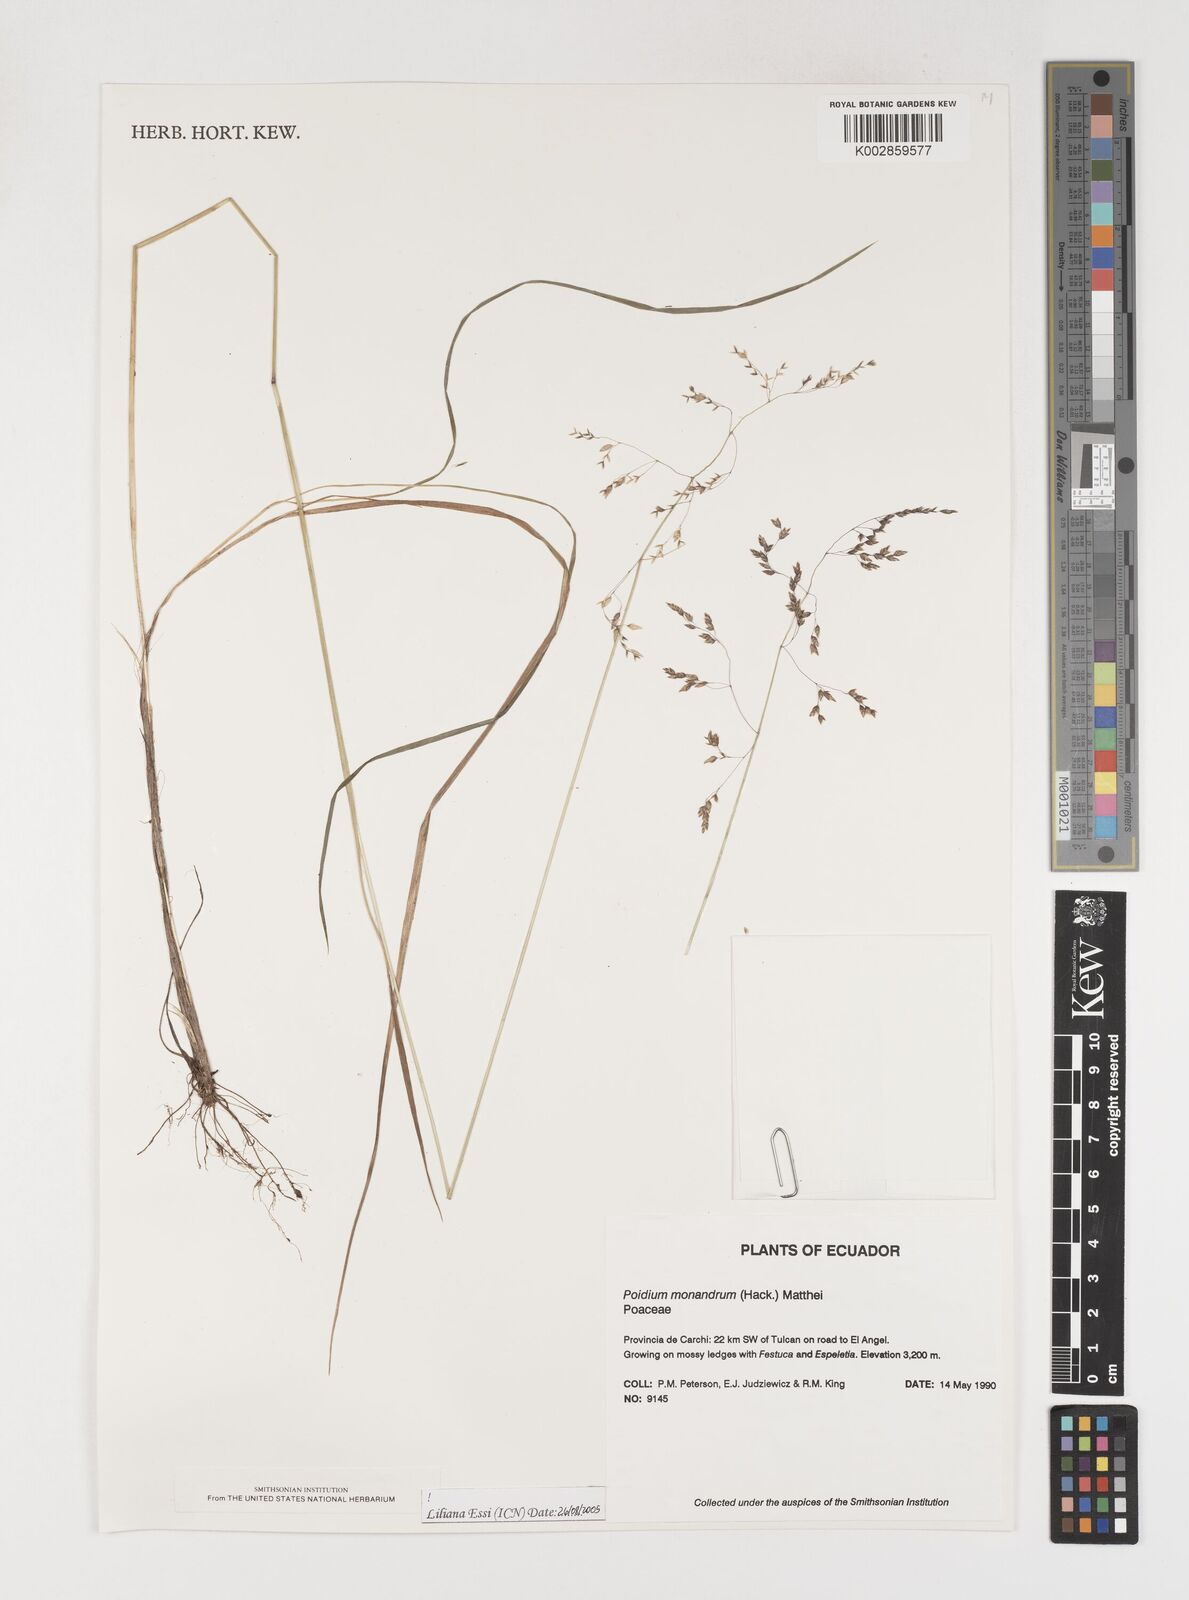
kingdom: Plantae
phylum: Tracheophyta
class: Liliopsida
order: Poales
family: Poaceae
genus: Poidium
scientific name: Poidium monandrum
